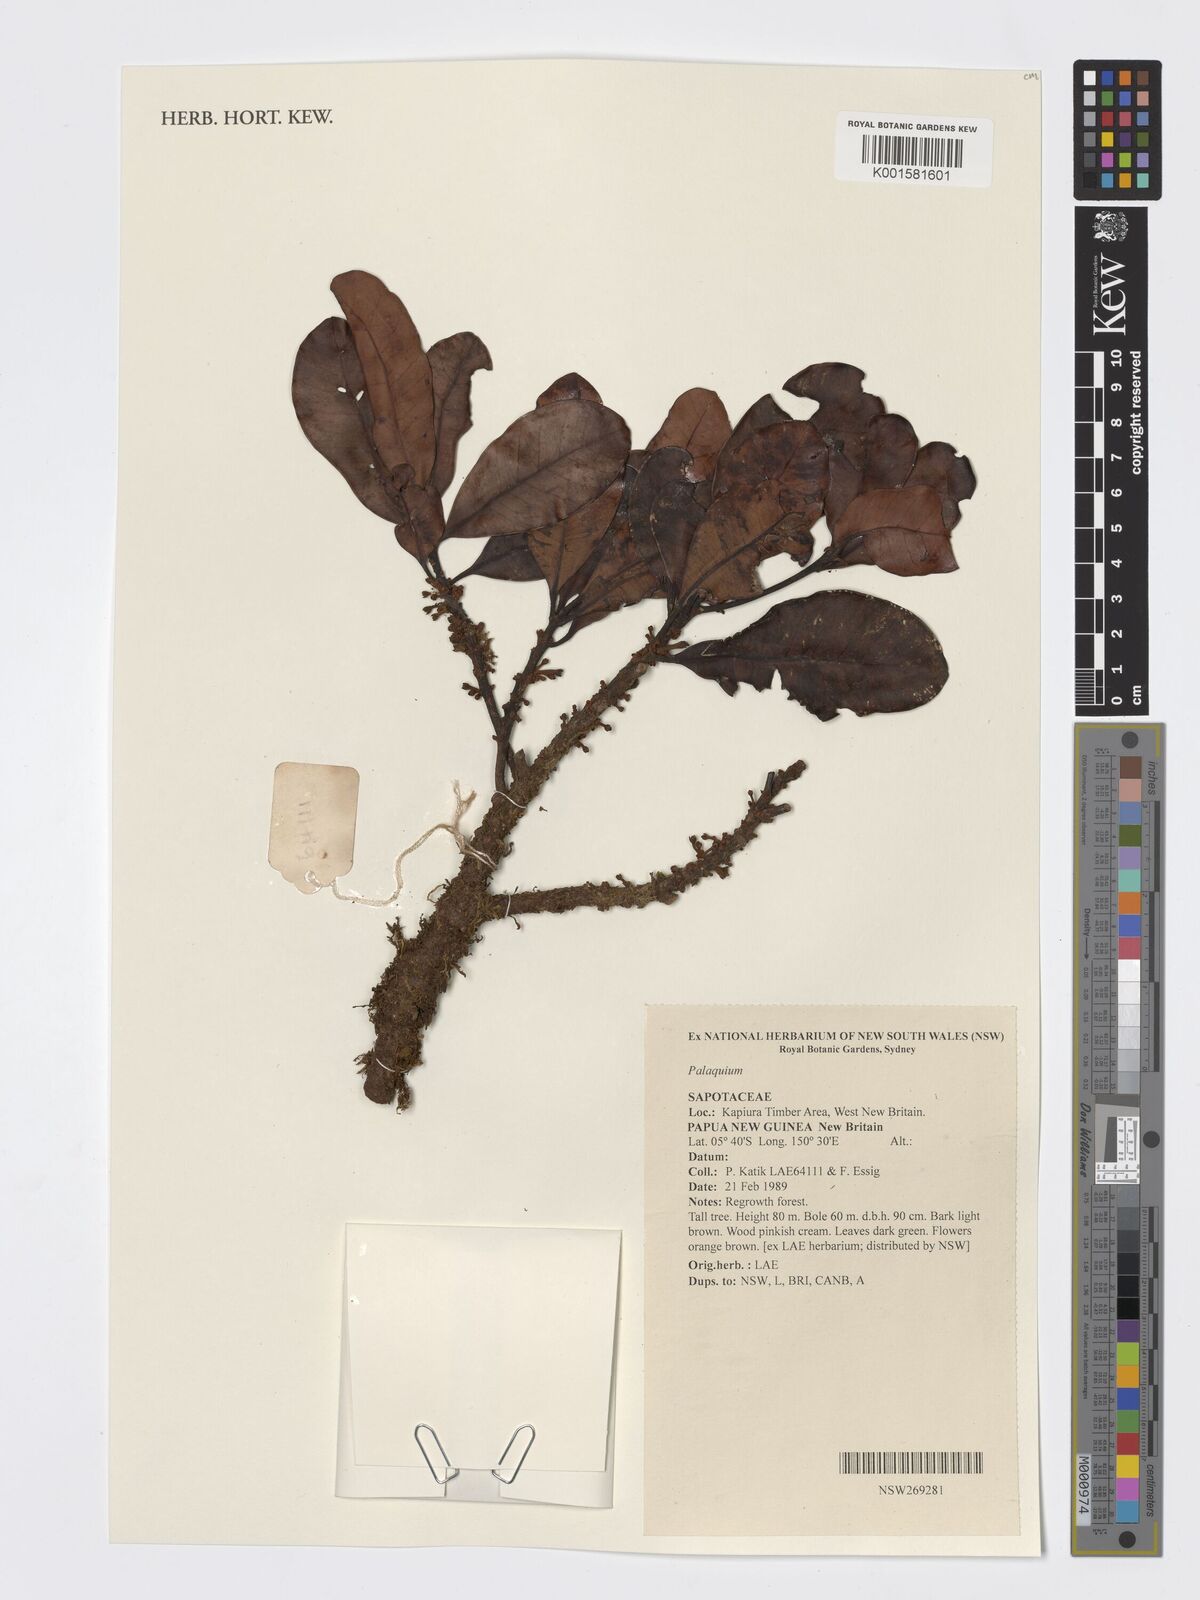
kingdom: Plantae
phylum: Tracheophyta
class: Magnoliopsida
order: Ericales
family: Sapotaceae
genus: Palaquium
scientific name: Palaquium
